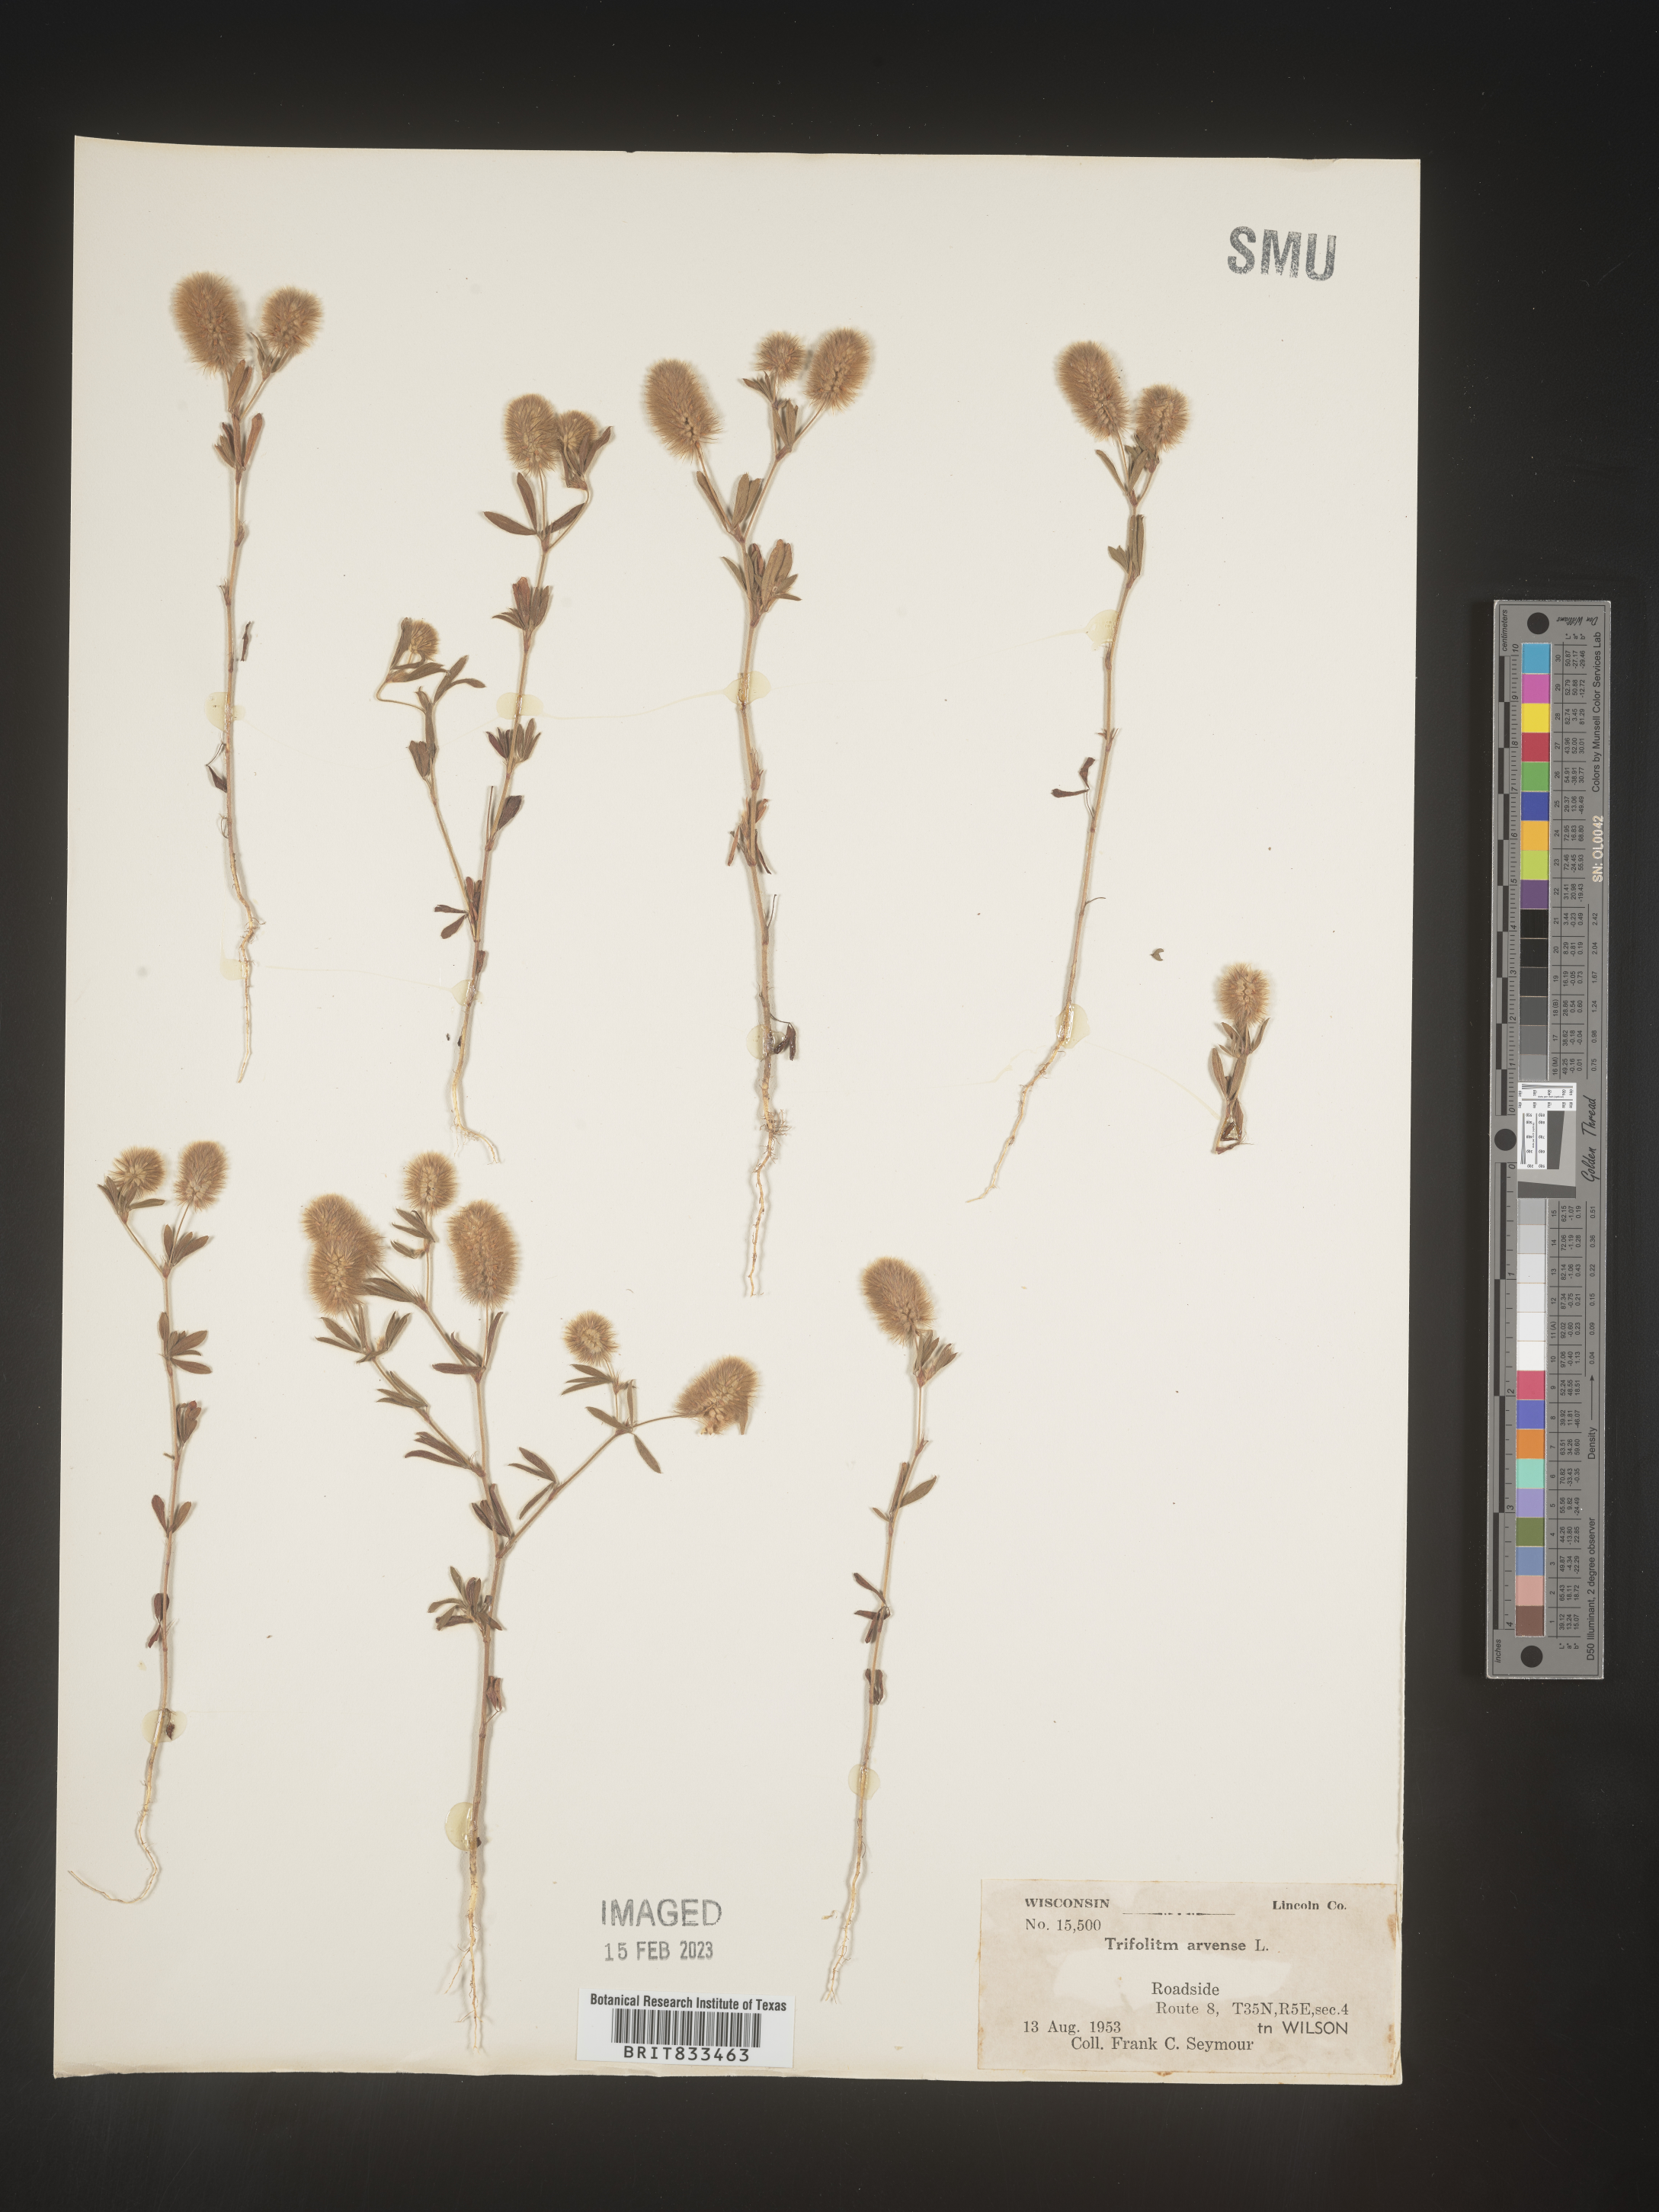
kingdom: Plantae
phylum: Tracheophyta
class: Magnoliopsida
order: Fabales
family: Fabaceae
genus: Trifolium
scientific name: Trifolium arvense
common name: Hare's-foot clover
